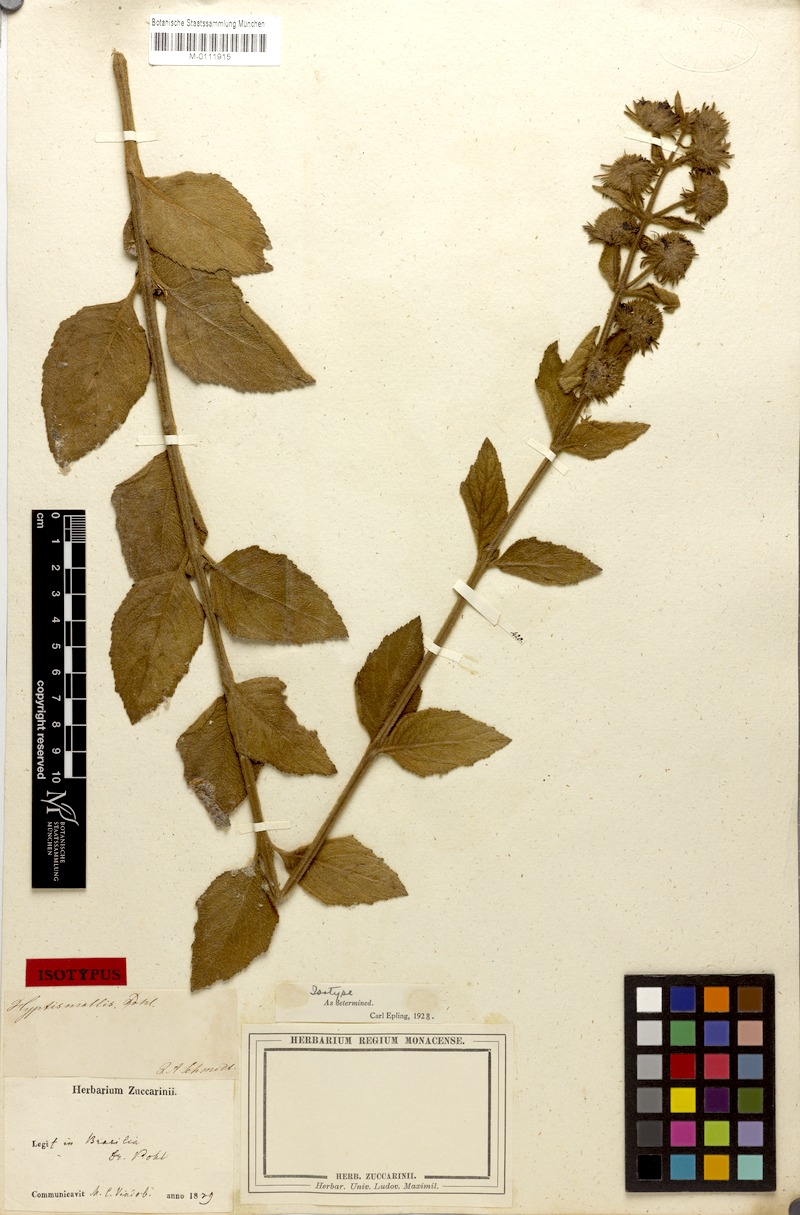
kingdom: Plantae
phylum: Tracheophyta
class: Magnoliopsida
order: Lamiales
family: Lamiaceae
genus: Hyptis
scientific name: Hyptis mollis
